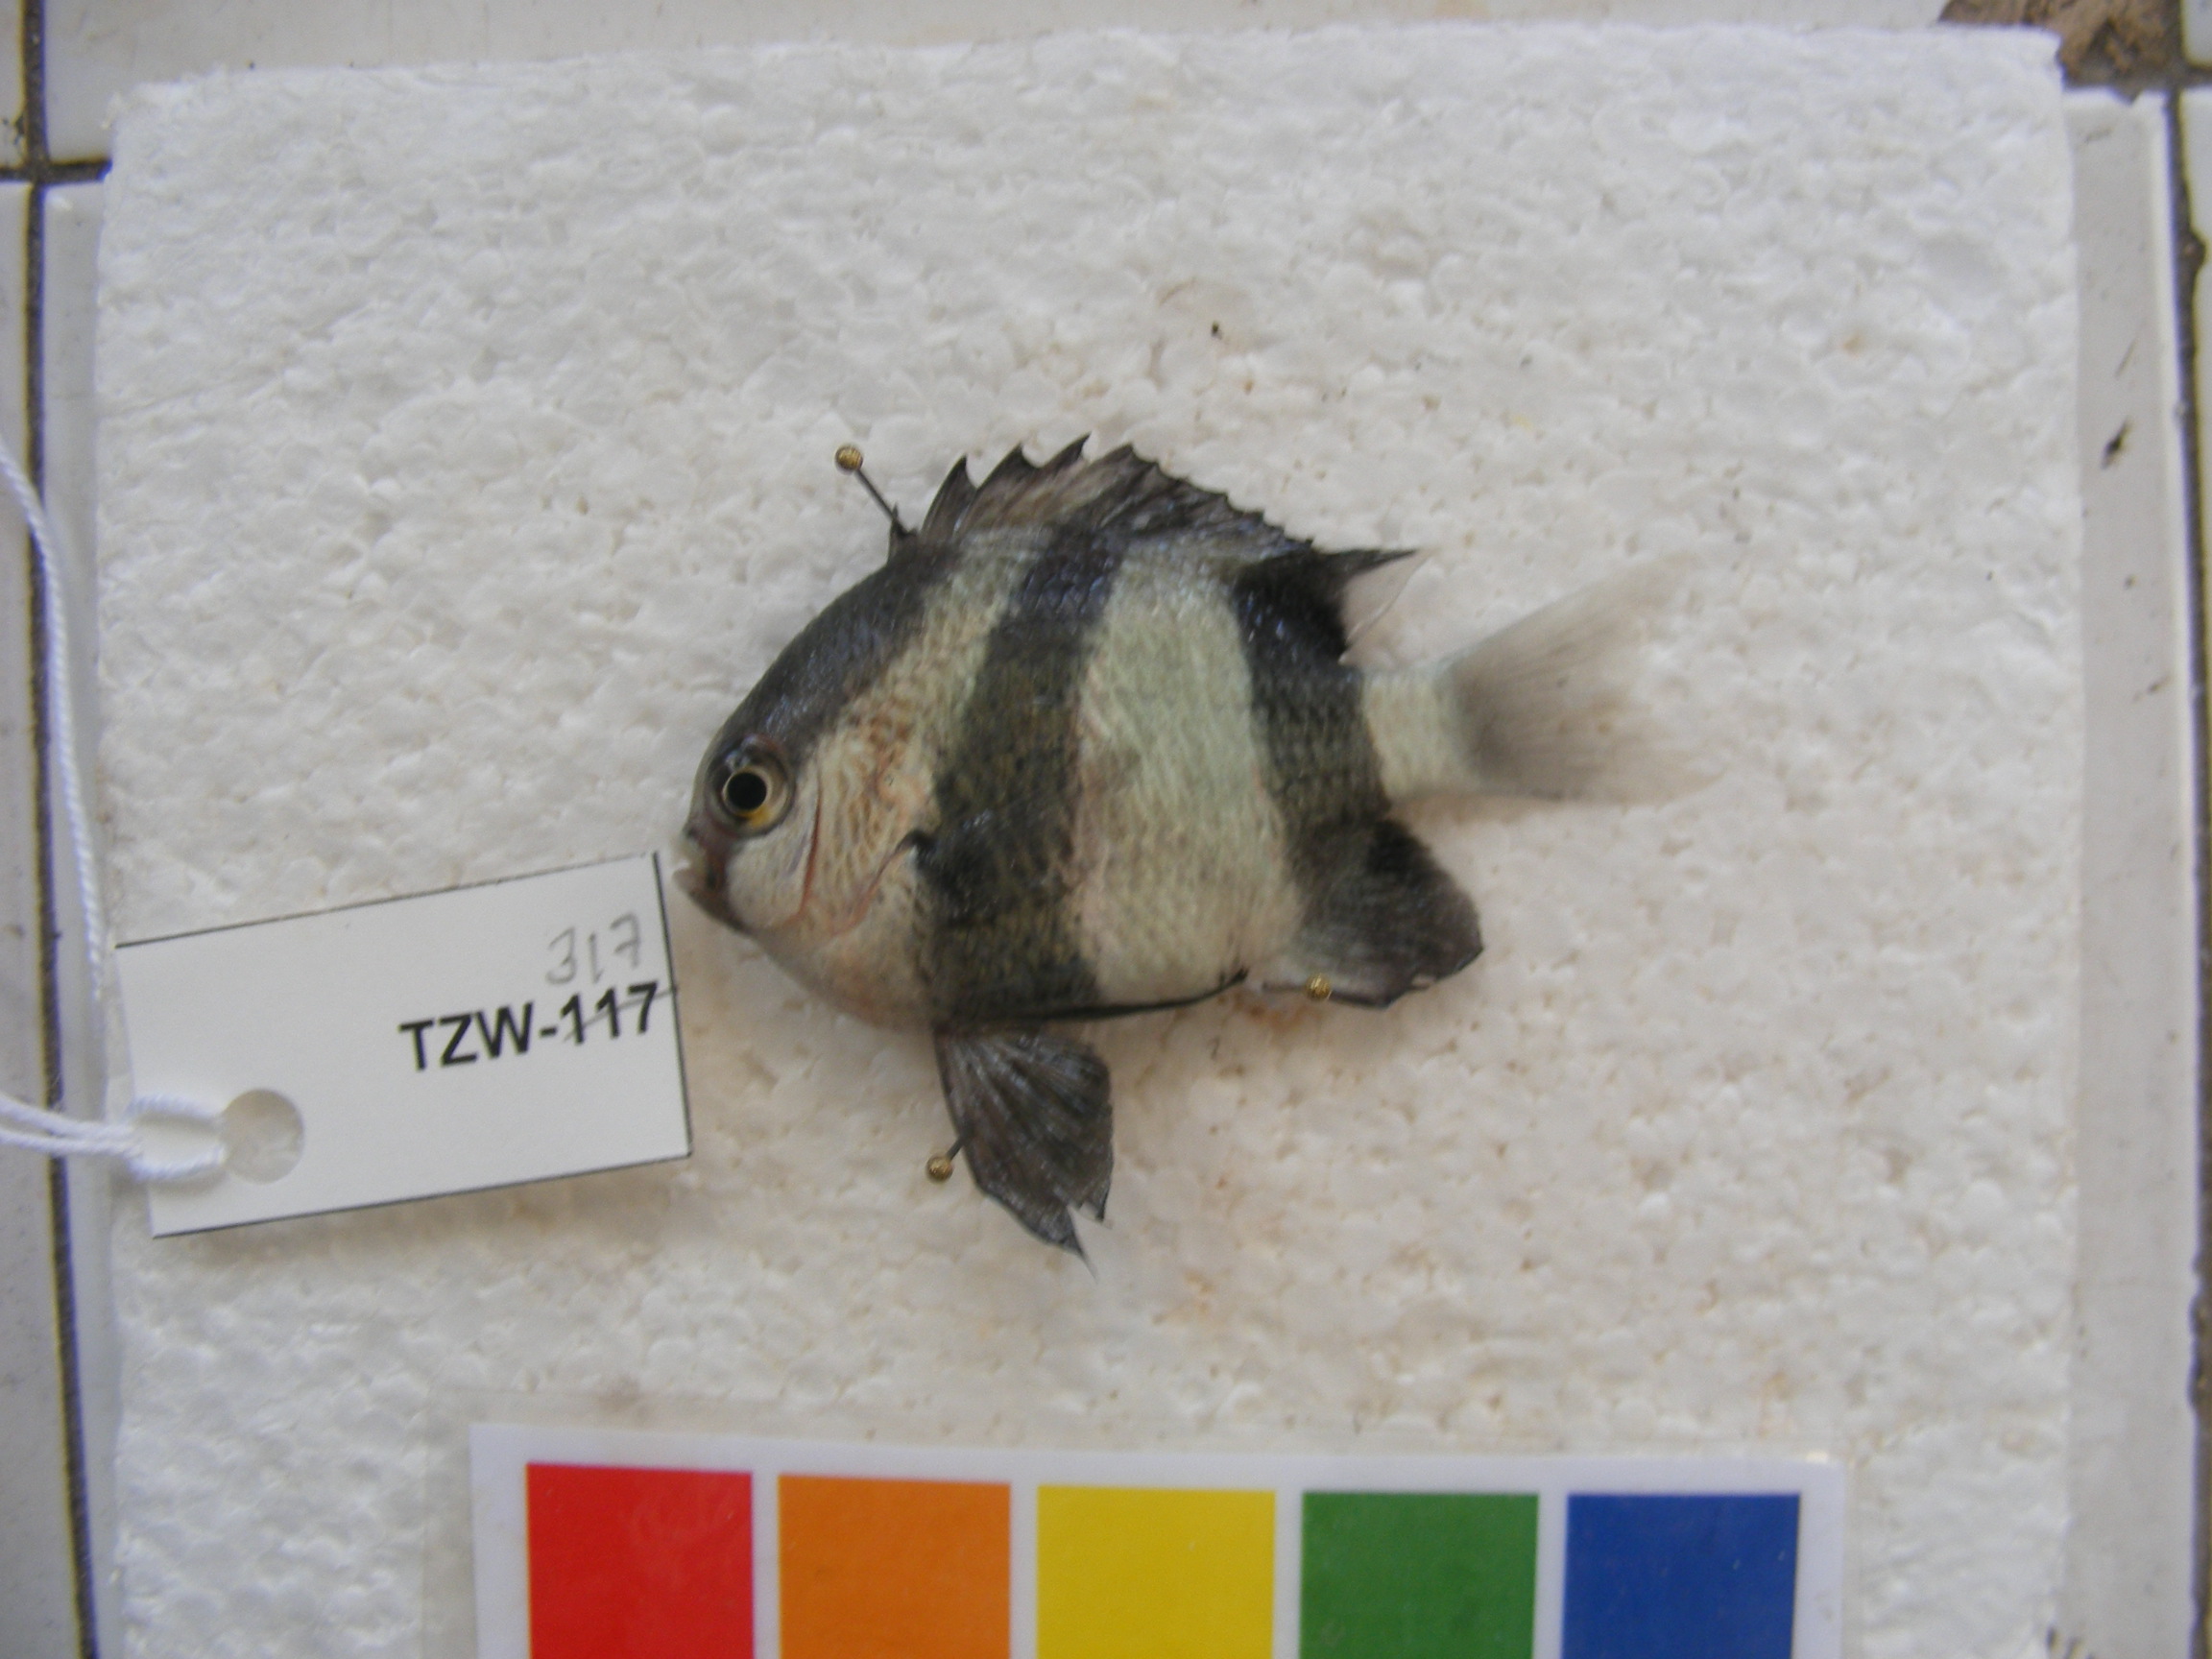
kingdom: Animalia
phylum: Chordata
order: Perciformes
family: Pomacentridae
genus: Dascyllus
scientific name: Dascyllus aruanus
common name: Humbug dascyllus
